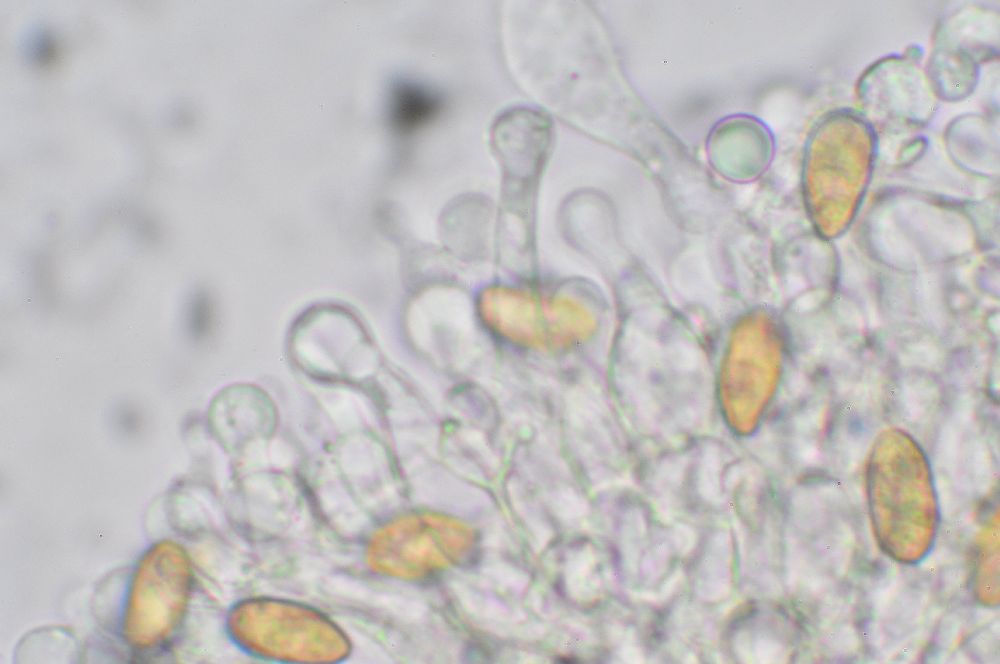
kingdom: Fungi
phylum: Basidiomycota
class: Agaricomycetes
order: Agaricales
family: Hymenogastraceae
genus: Galerina
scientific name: Galerina clavata
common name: kær-hjelmhat
